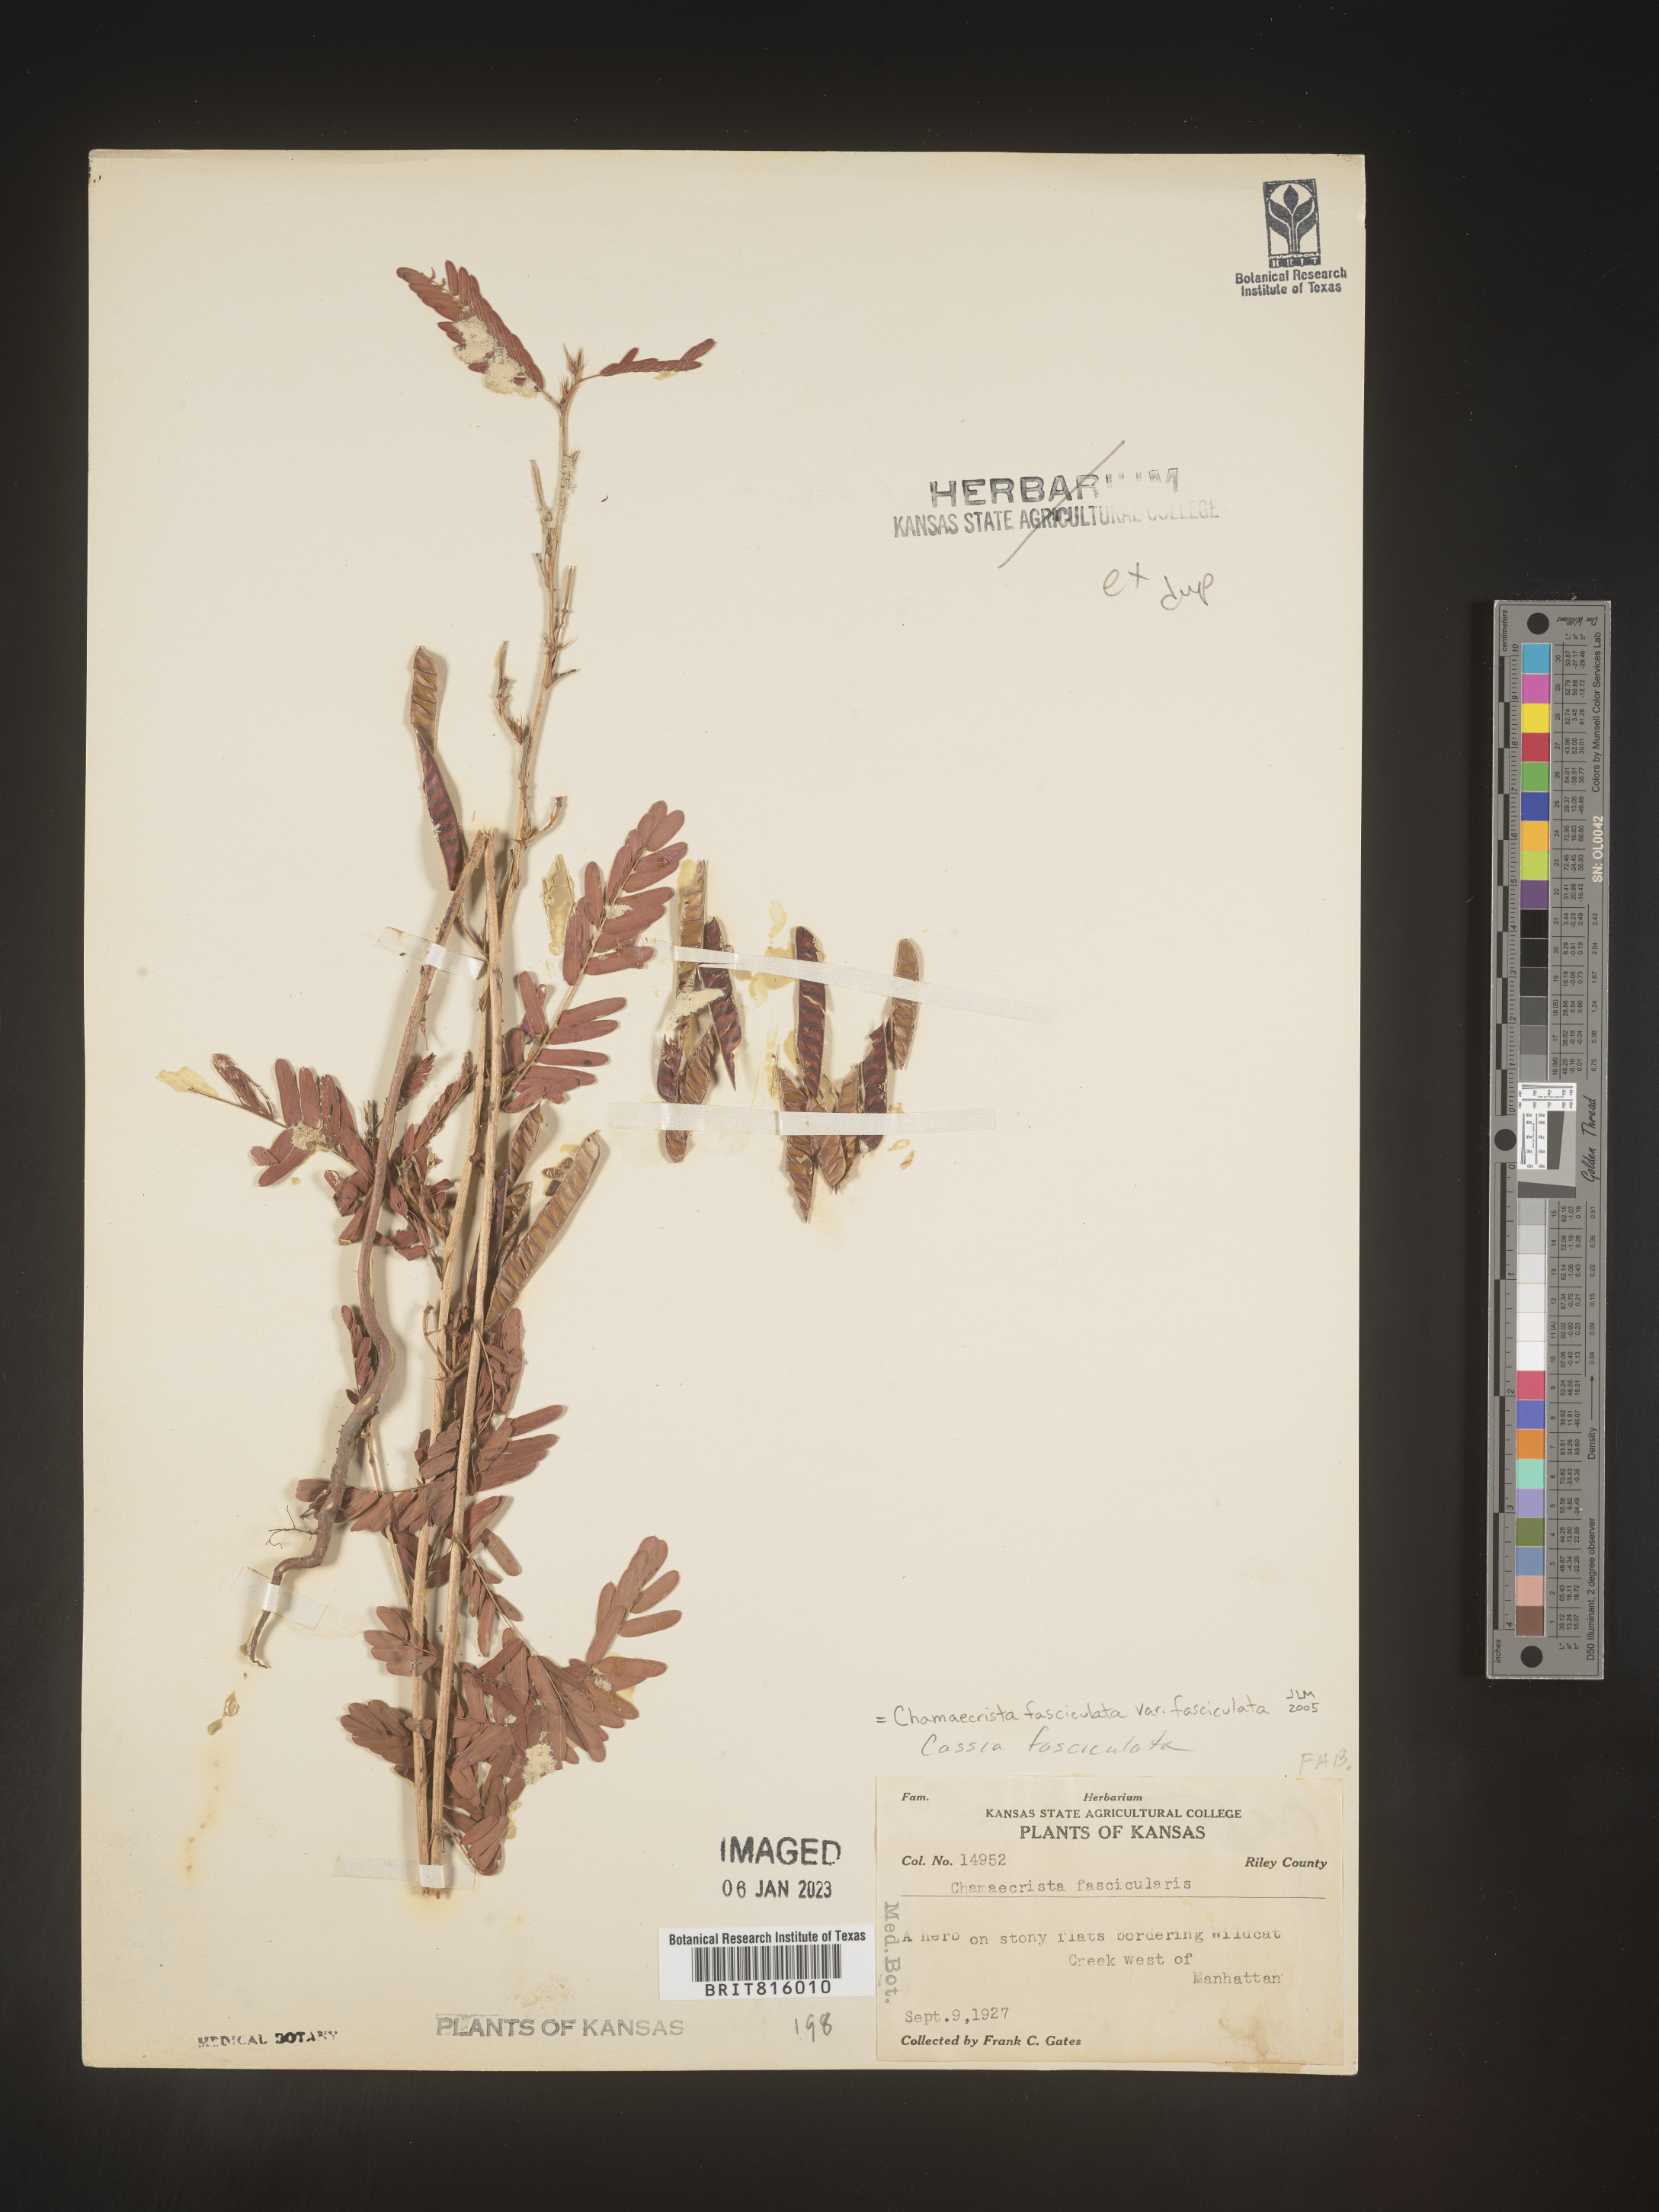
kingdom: Plantae
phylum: Tracheophyta
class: Magnoliopsida
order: Fabales
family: Fabaceae
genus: Chamaecrista
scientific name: Chamaecrista fasciculata
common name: Golden cassia
